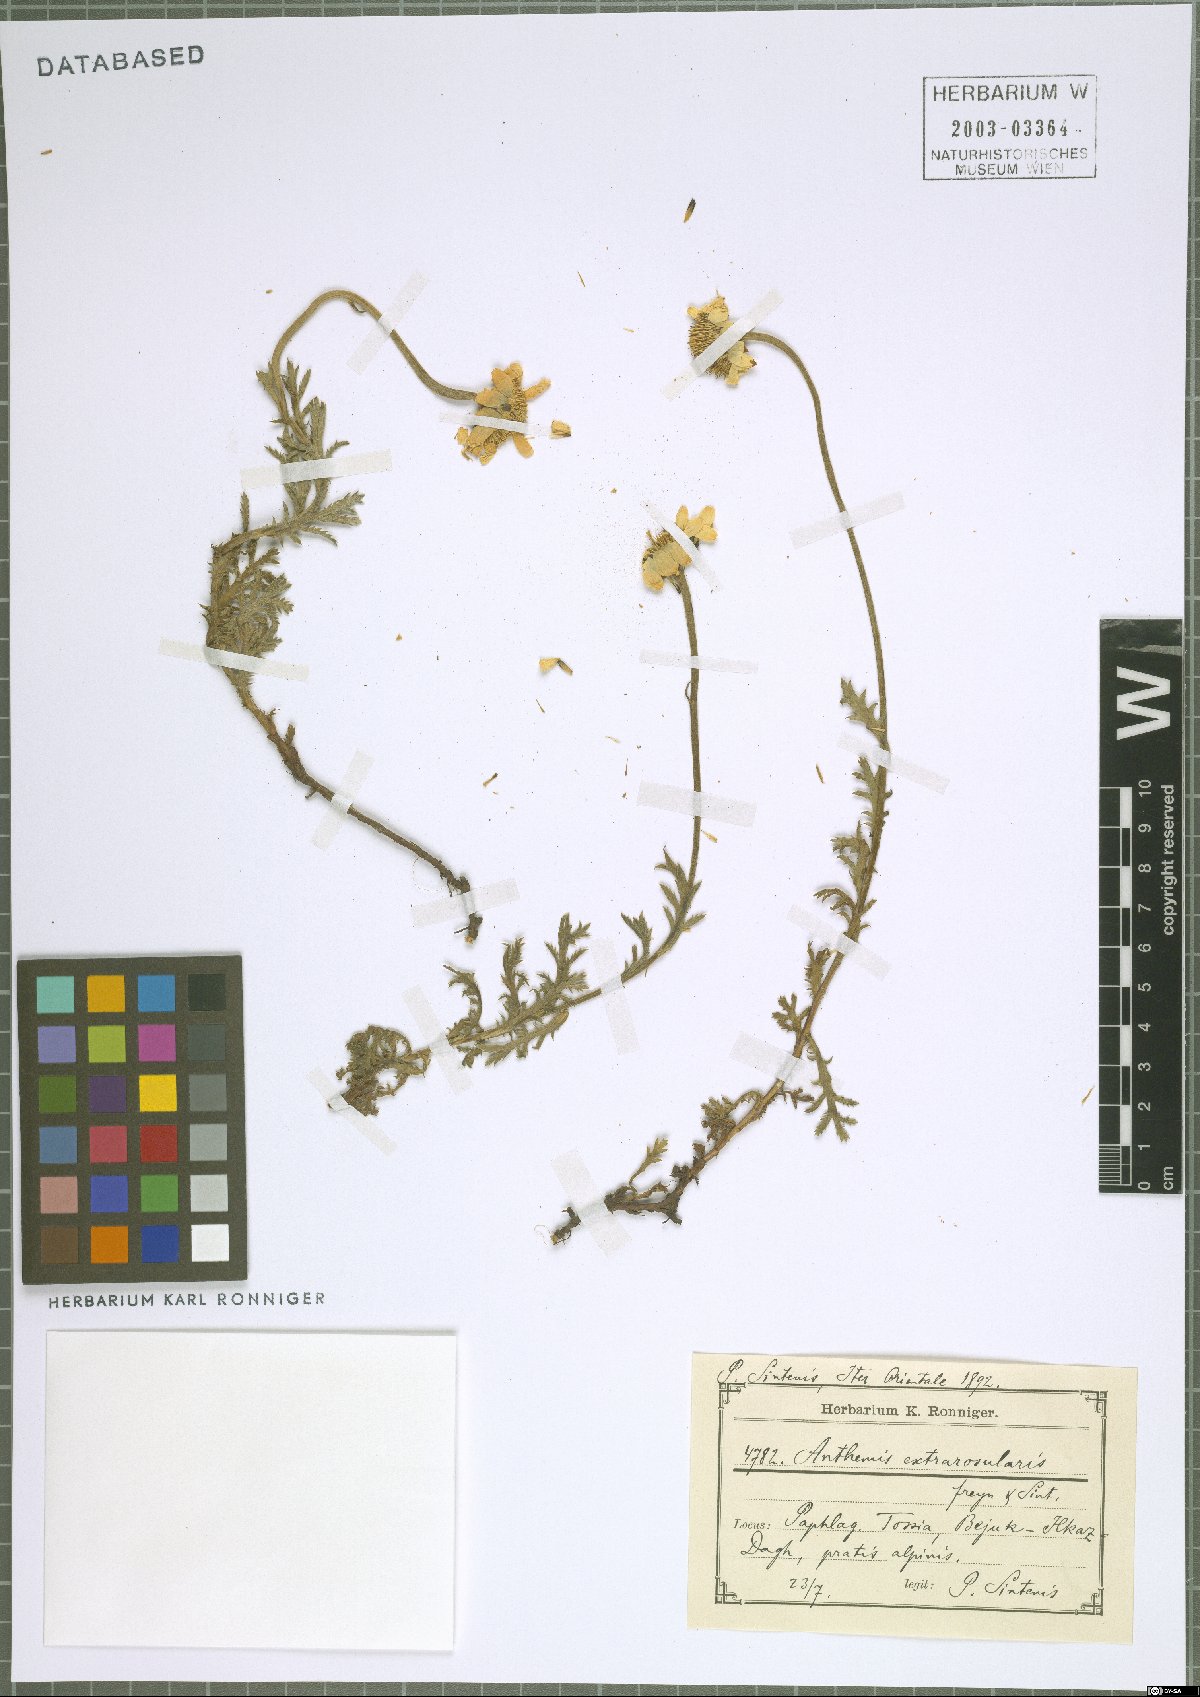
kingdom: Plantae
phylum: Tracheophyta
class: Magnoliopsida
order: Asterales
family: Asteraceae
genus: Cota
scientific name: Cota melanoloma
